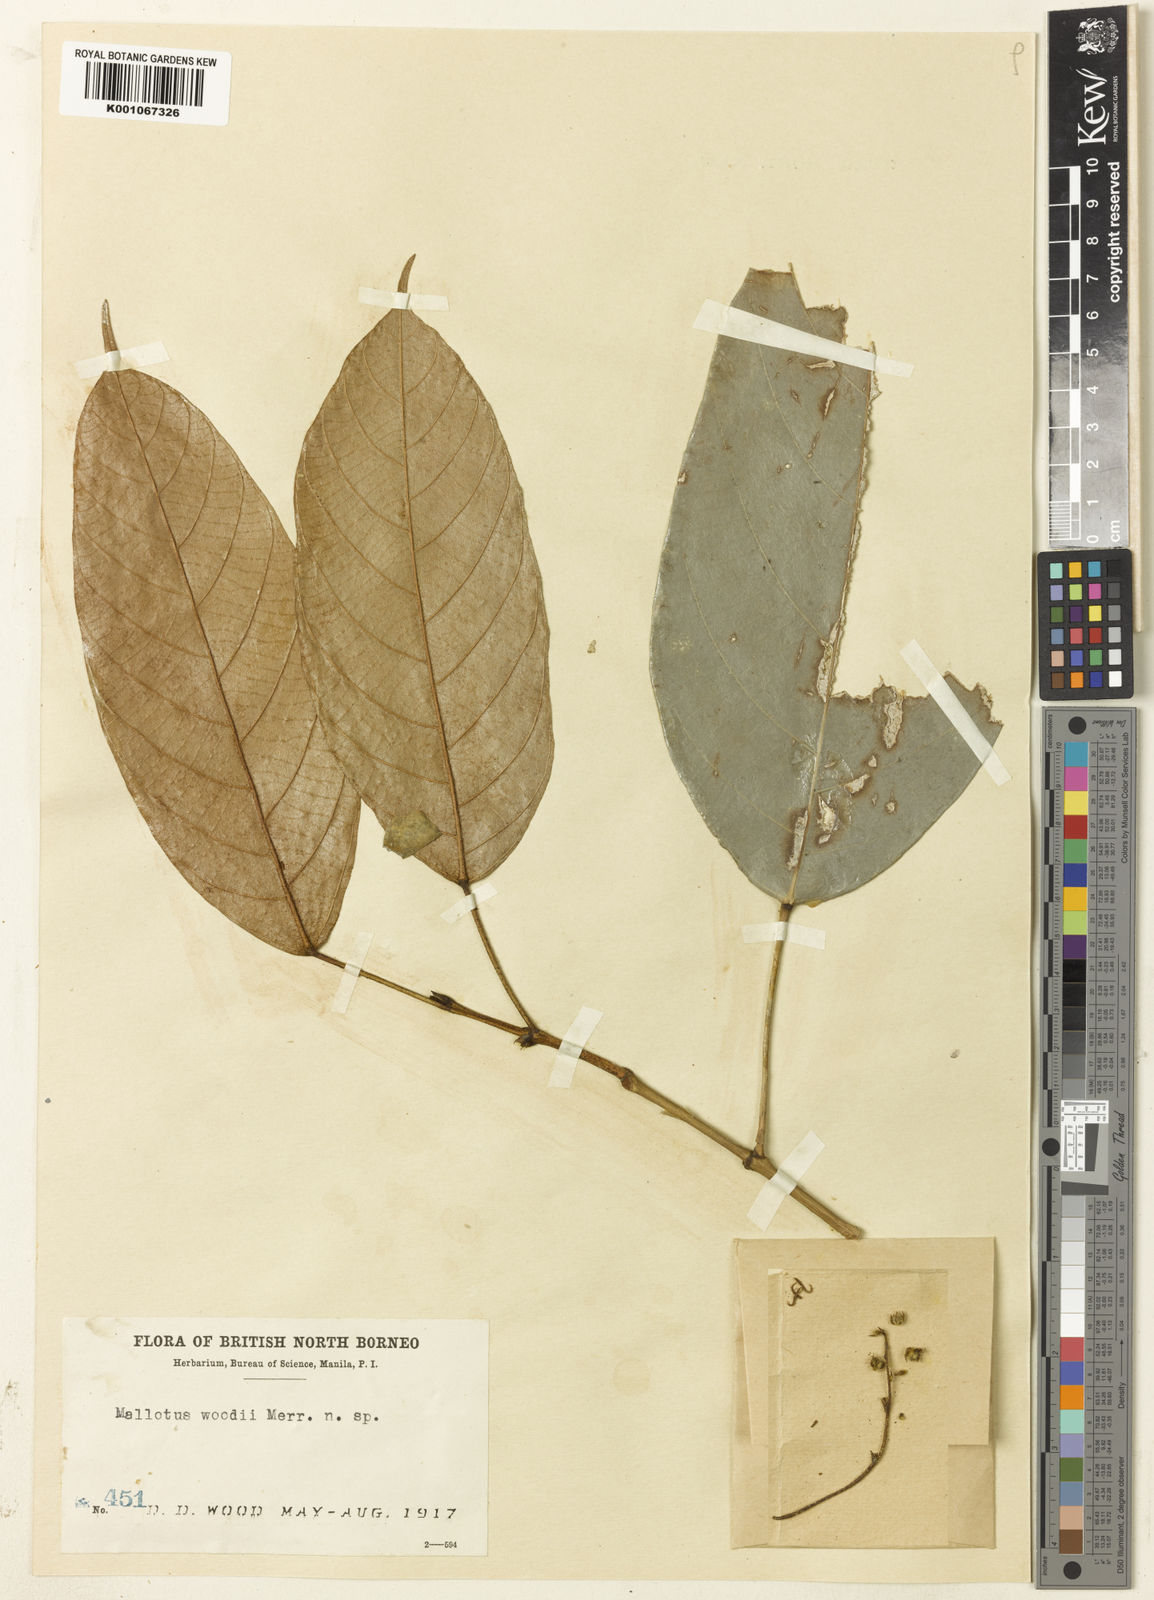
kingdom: Plantae
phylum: Tracheophyta
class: Magnoliopsida
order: Malpighiales
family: Euphorbiaceae
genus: Hancea
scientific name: Hancea griffithiana
